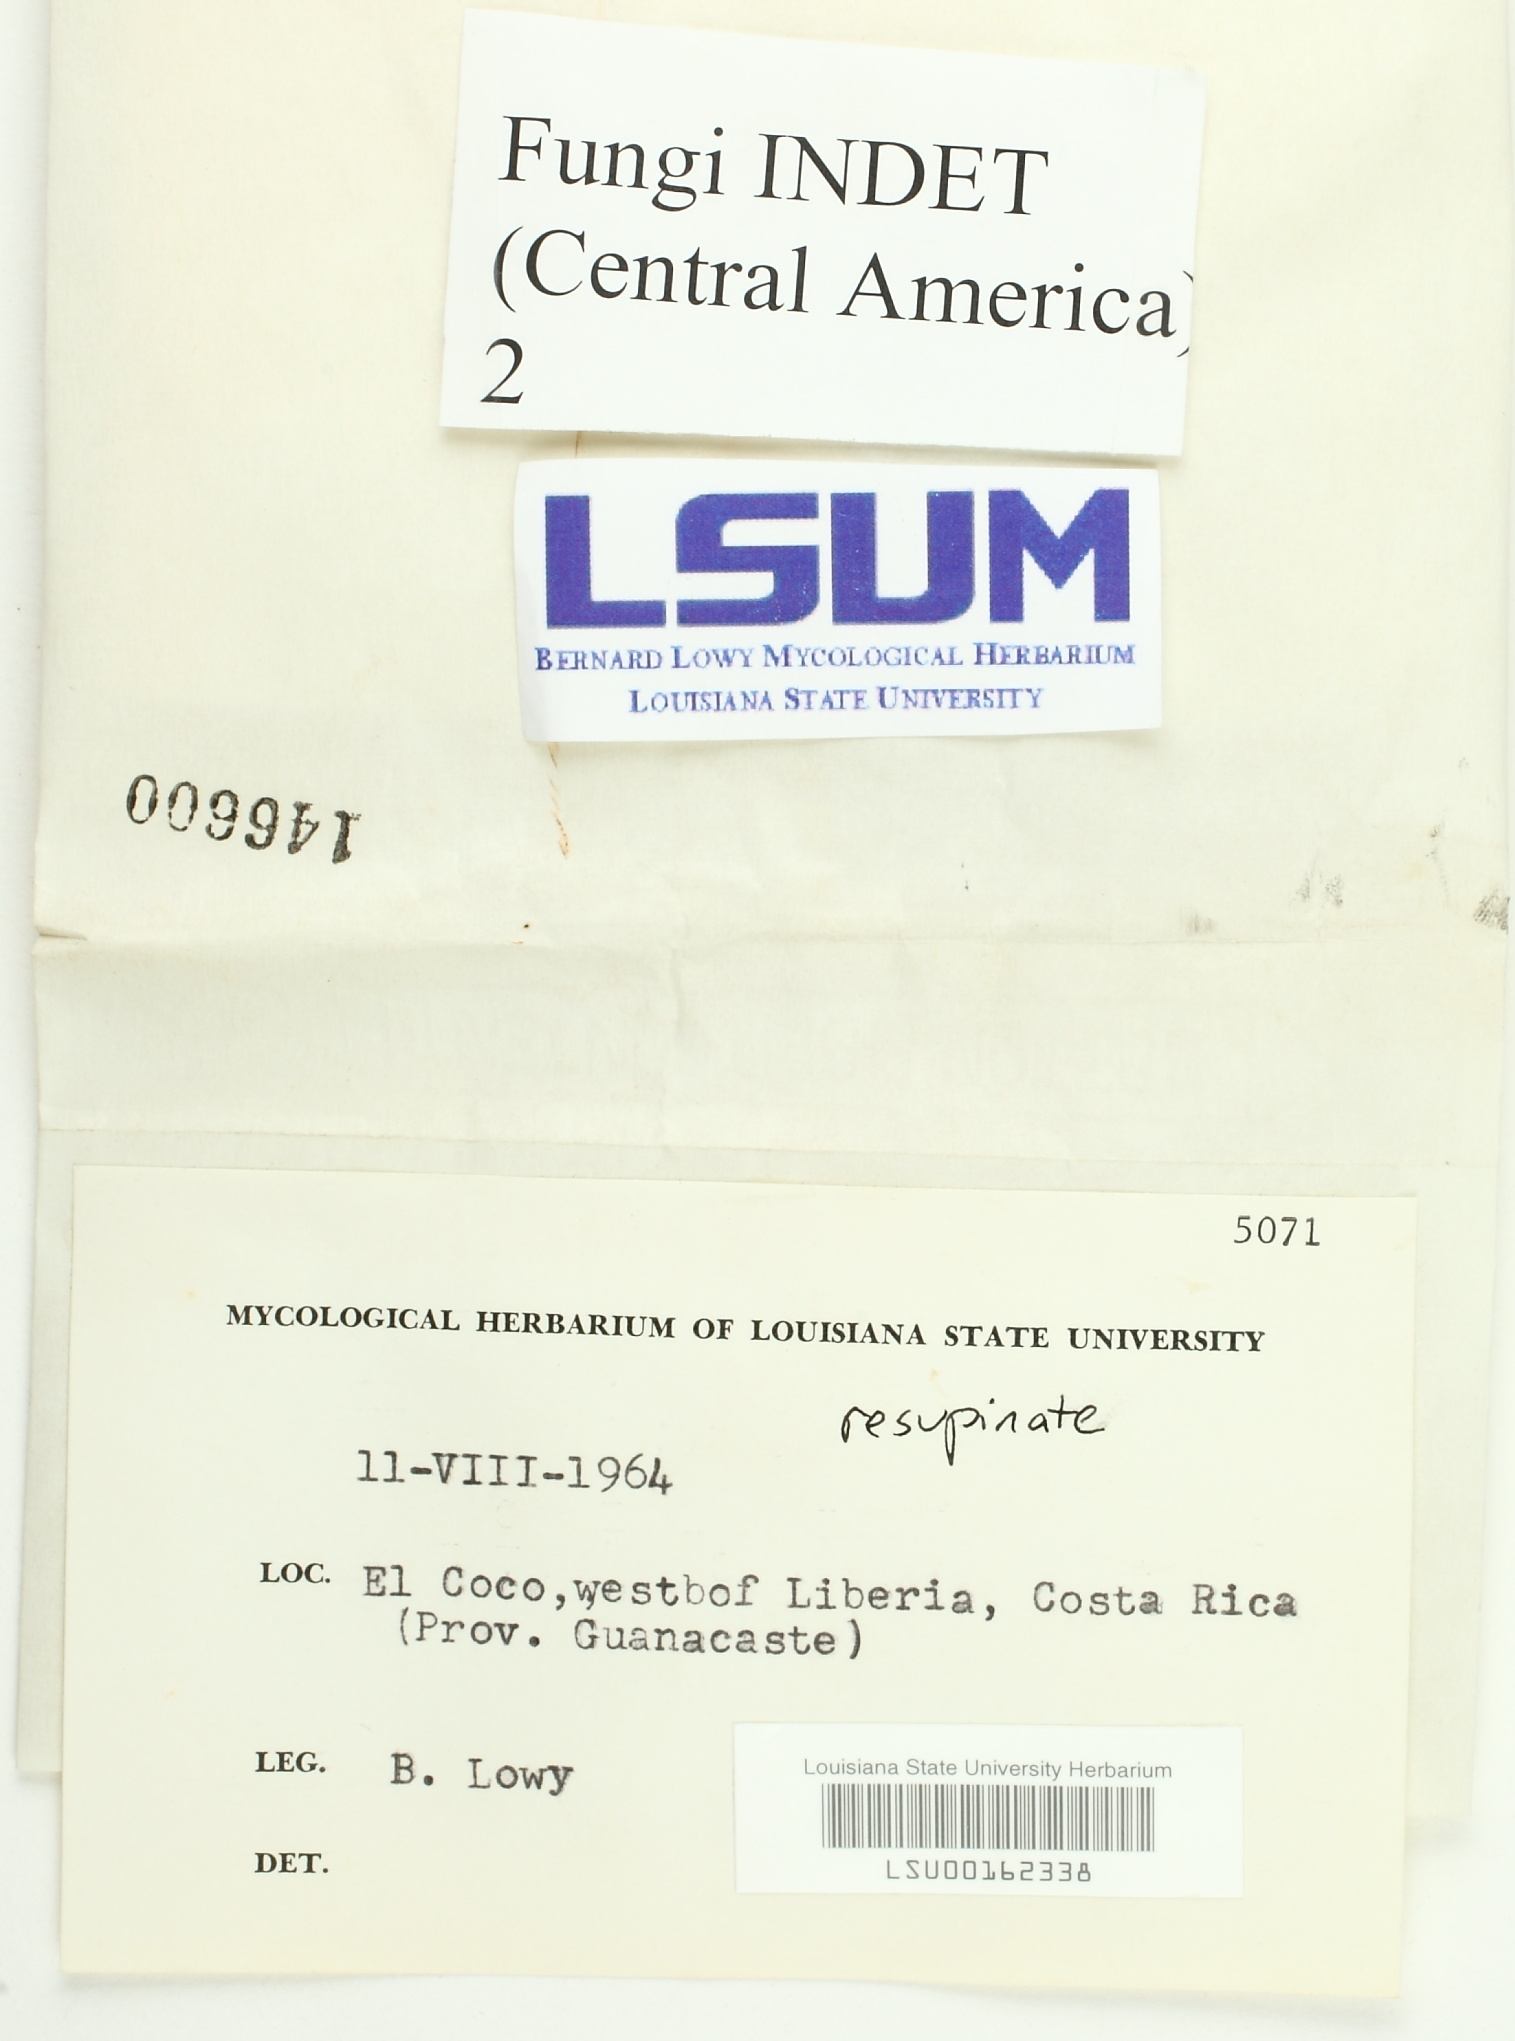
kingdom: Fungi
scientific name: Fungi
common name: Fungi
